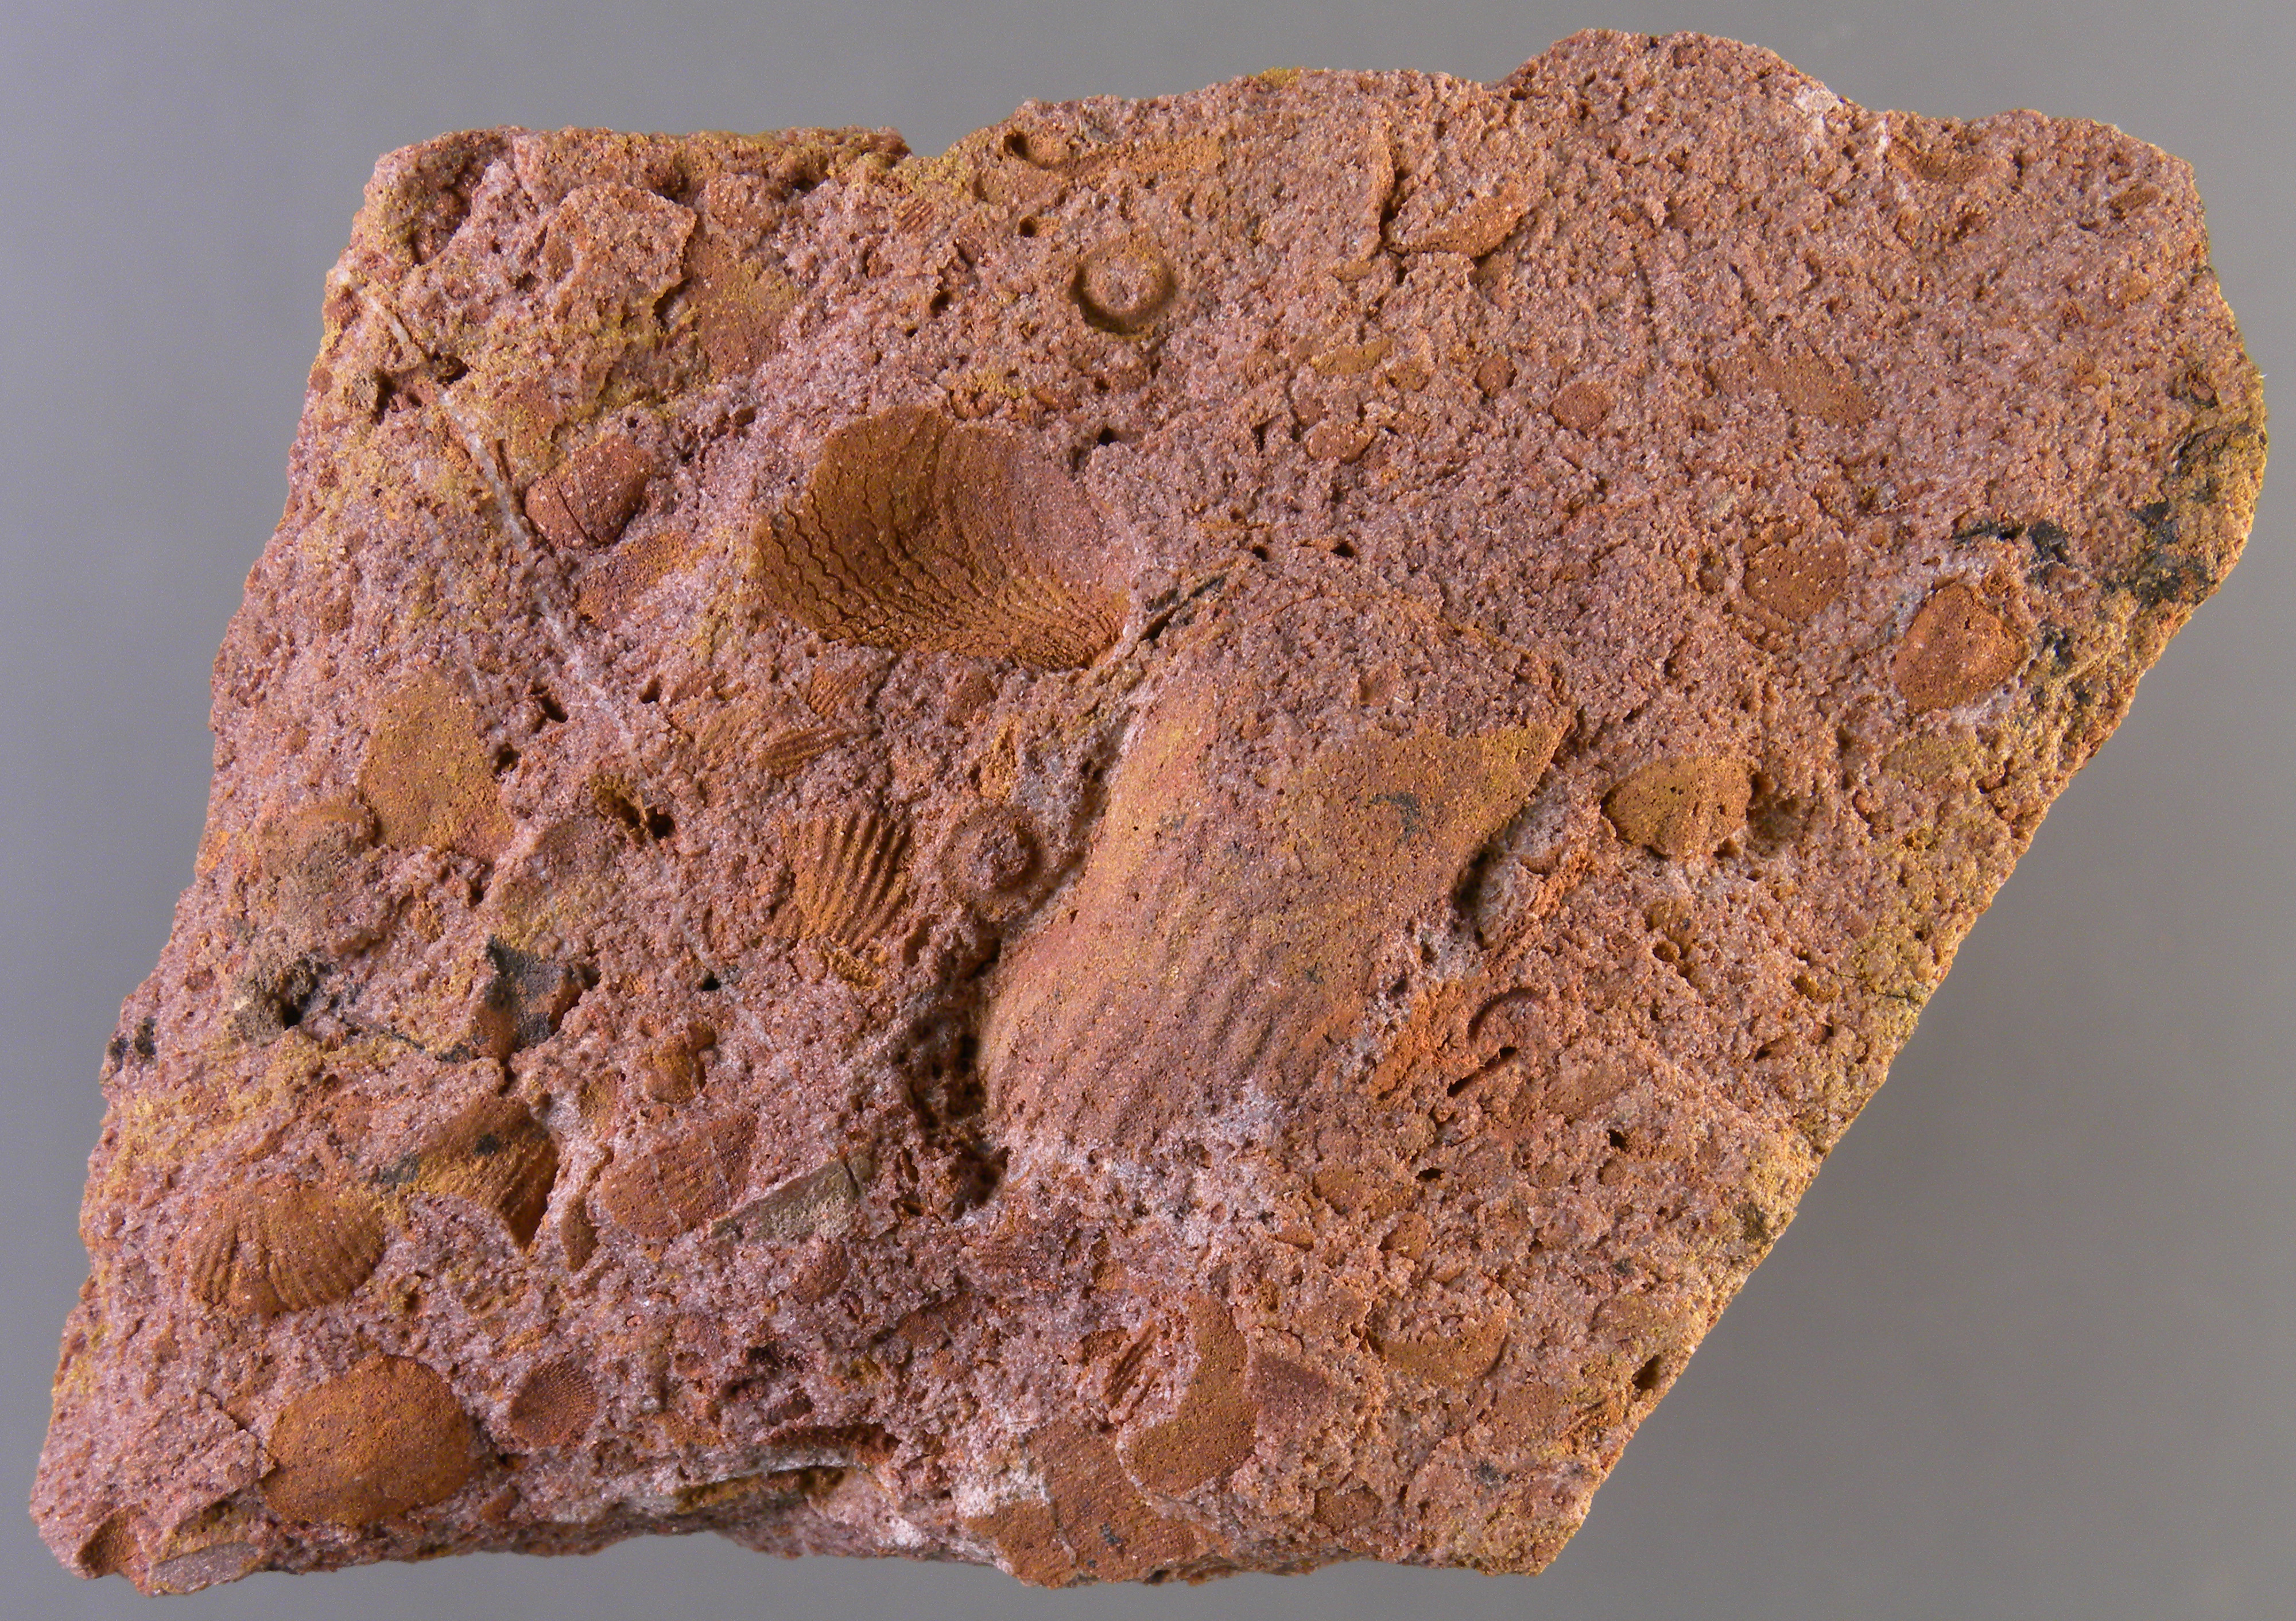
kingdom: Animalia
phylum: Mollusca
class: Bivalvia
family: Sanguinolitidae
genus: Myofossa
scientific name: Myofossa
